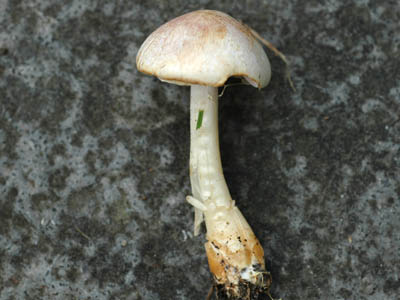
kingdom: Fungi
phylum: Basidiomycota
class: Agaricomycetes
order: Agaricales
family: Agaricaceae
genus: Agaricus
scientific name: Agaricus dulcidulus
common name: blegrød champignon
